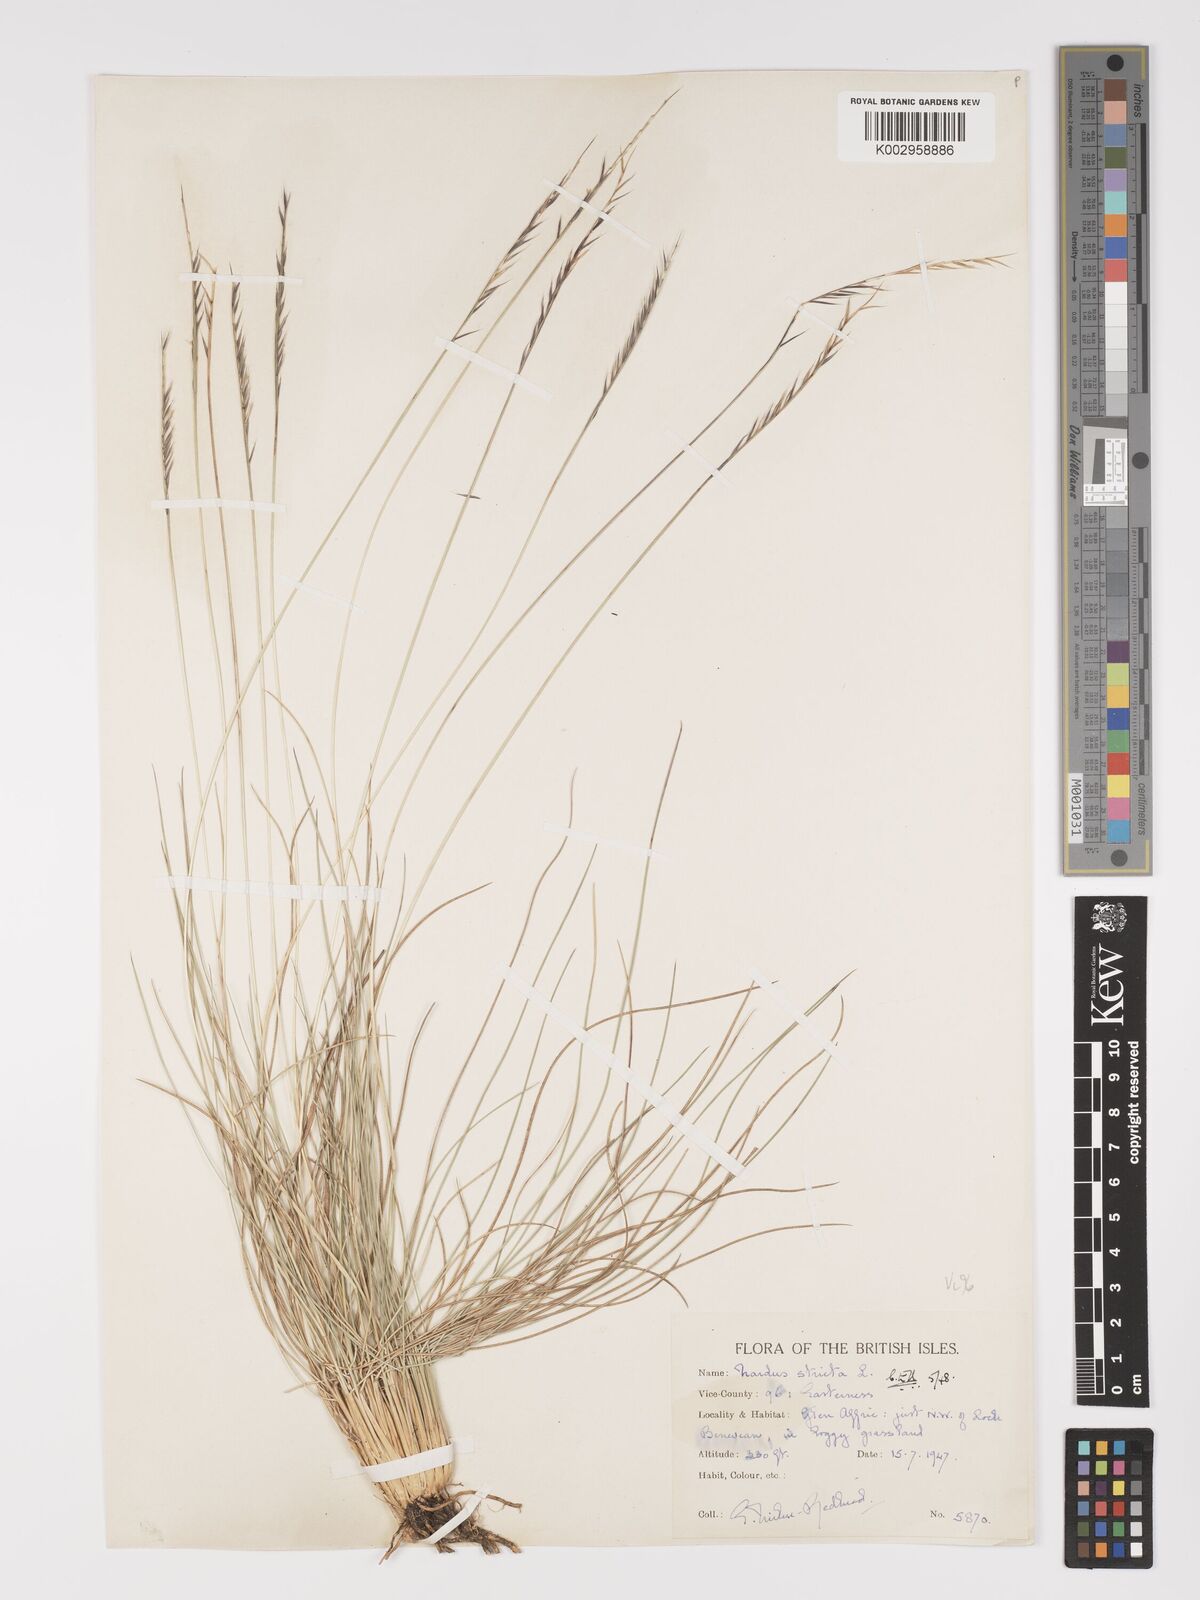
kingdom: Plantae
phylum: Tracheophyta
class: Liliopsida
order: Poales
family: Poaceae
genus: Nardus
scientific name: Nardus stricta
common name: Mat-grass
